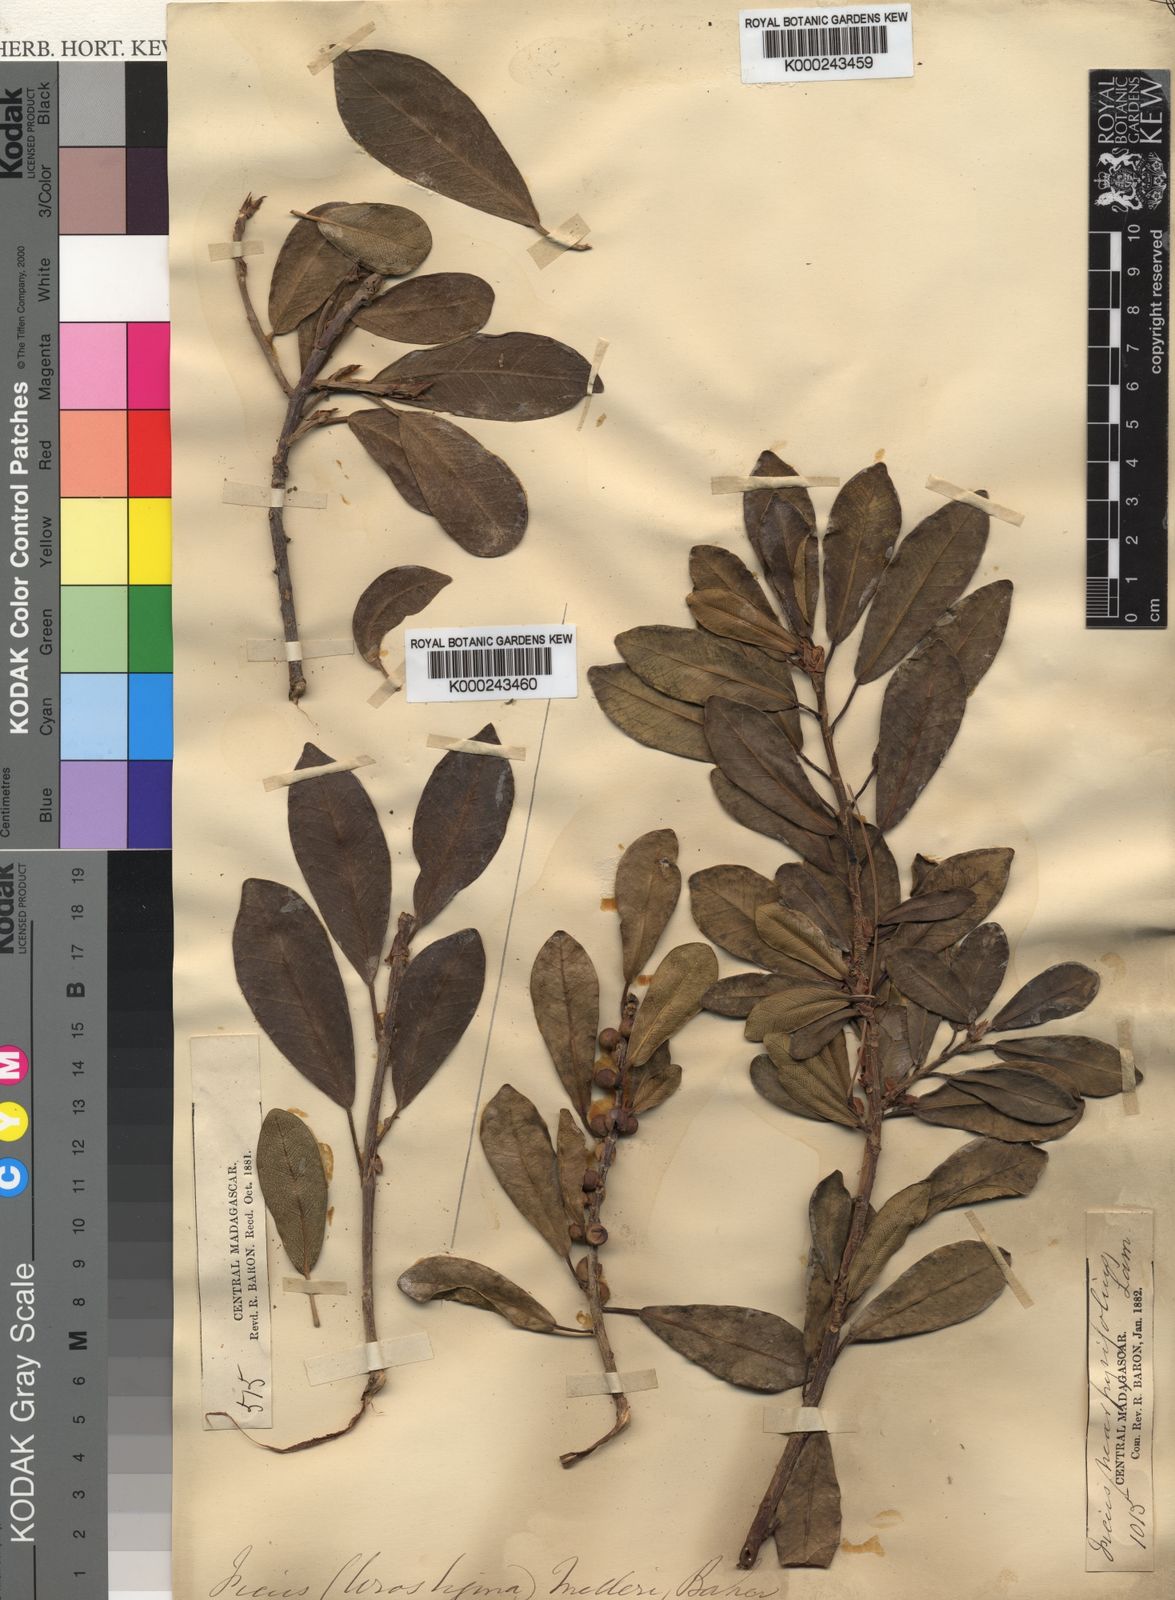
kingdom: Plantae
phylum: Tracheophyta
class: Magnoliopsida
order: Rosales
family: Moraceae
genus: Ficus
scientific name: Ficus reflexa
